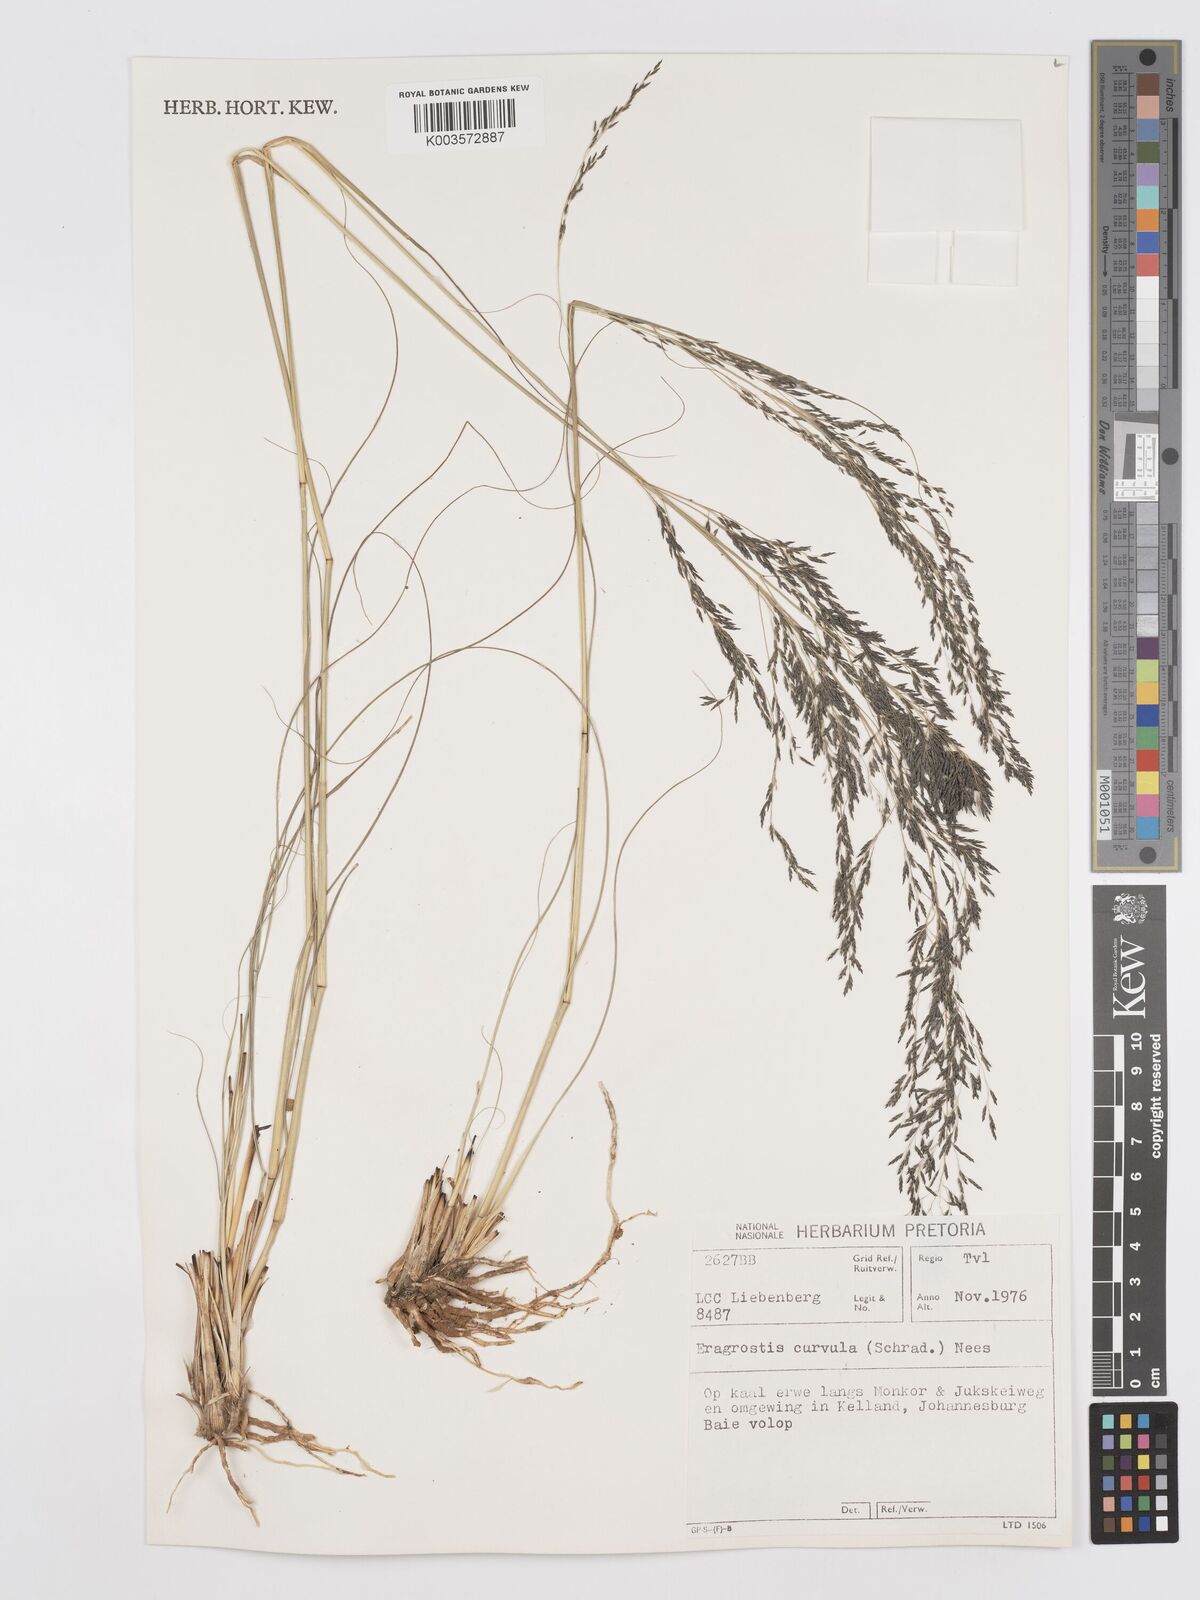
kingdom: Plantae
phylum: Tracheophyta
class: Liliopsida
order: Poales
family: Poaceae
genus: Eragrostis
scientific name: Eragrostis curvula
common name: African love-grass
